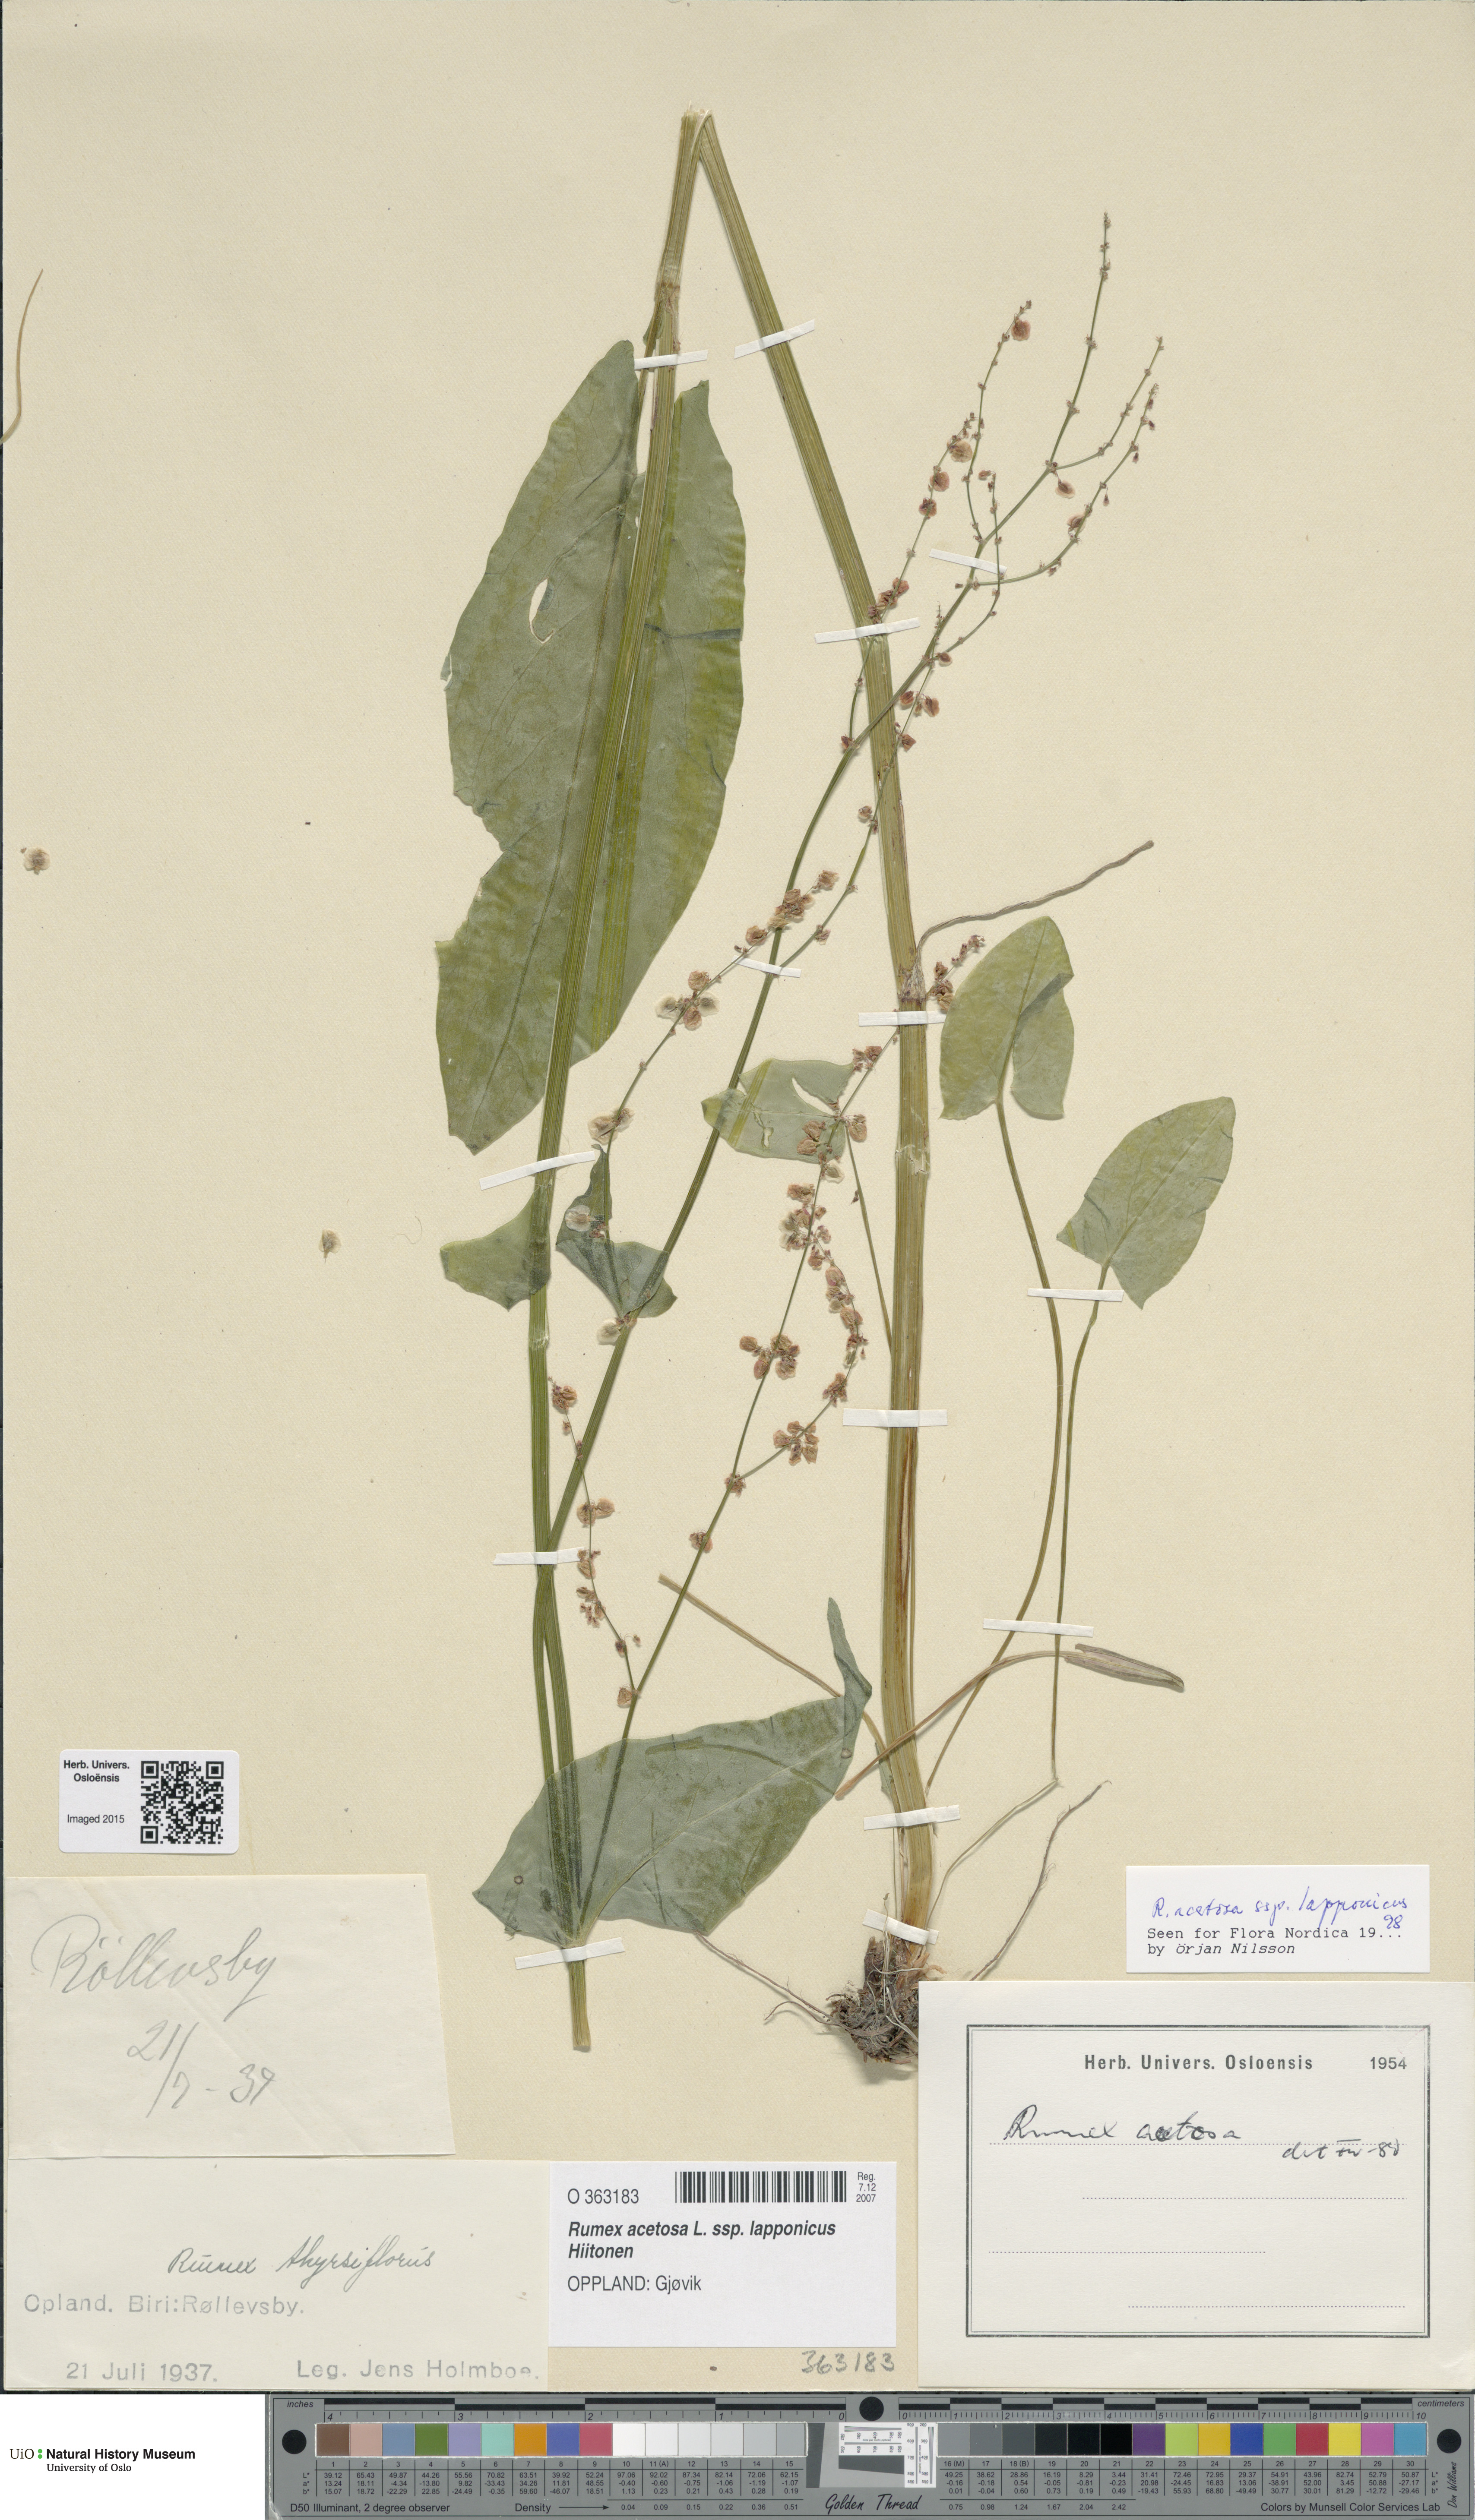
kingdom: Plantae
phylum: Tracheophyta
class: Magnoliopsida
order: Caryophyllales
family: Polygonaceae
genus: Rumex
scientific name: Rumex lapponicus
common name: Lapland mountain sorrel
